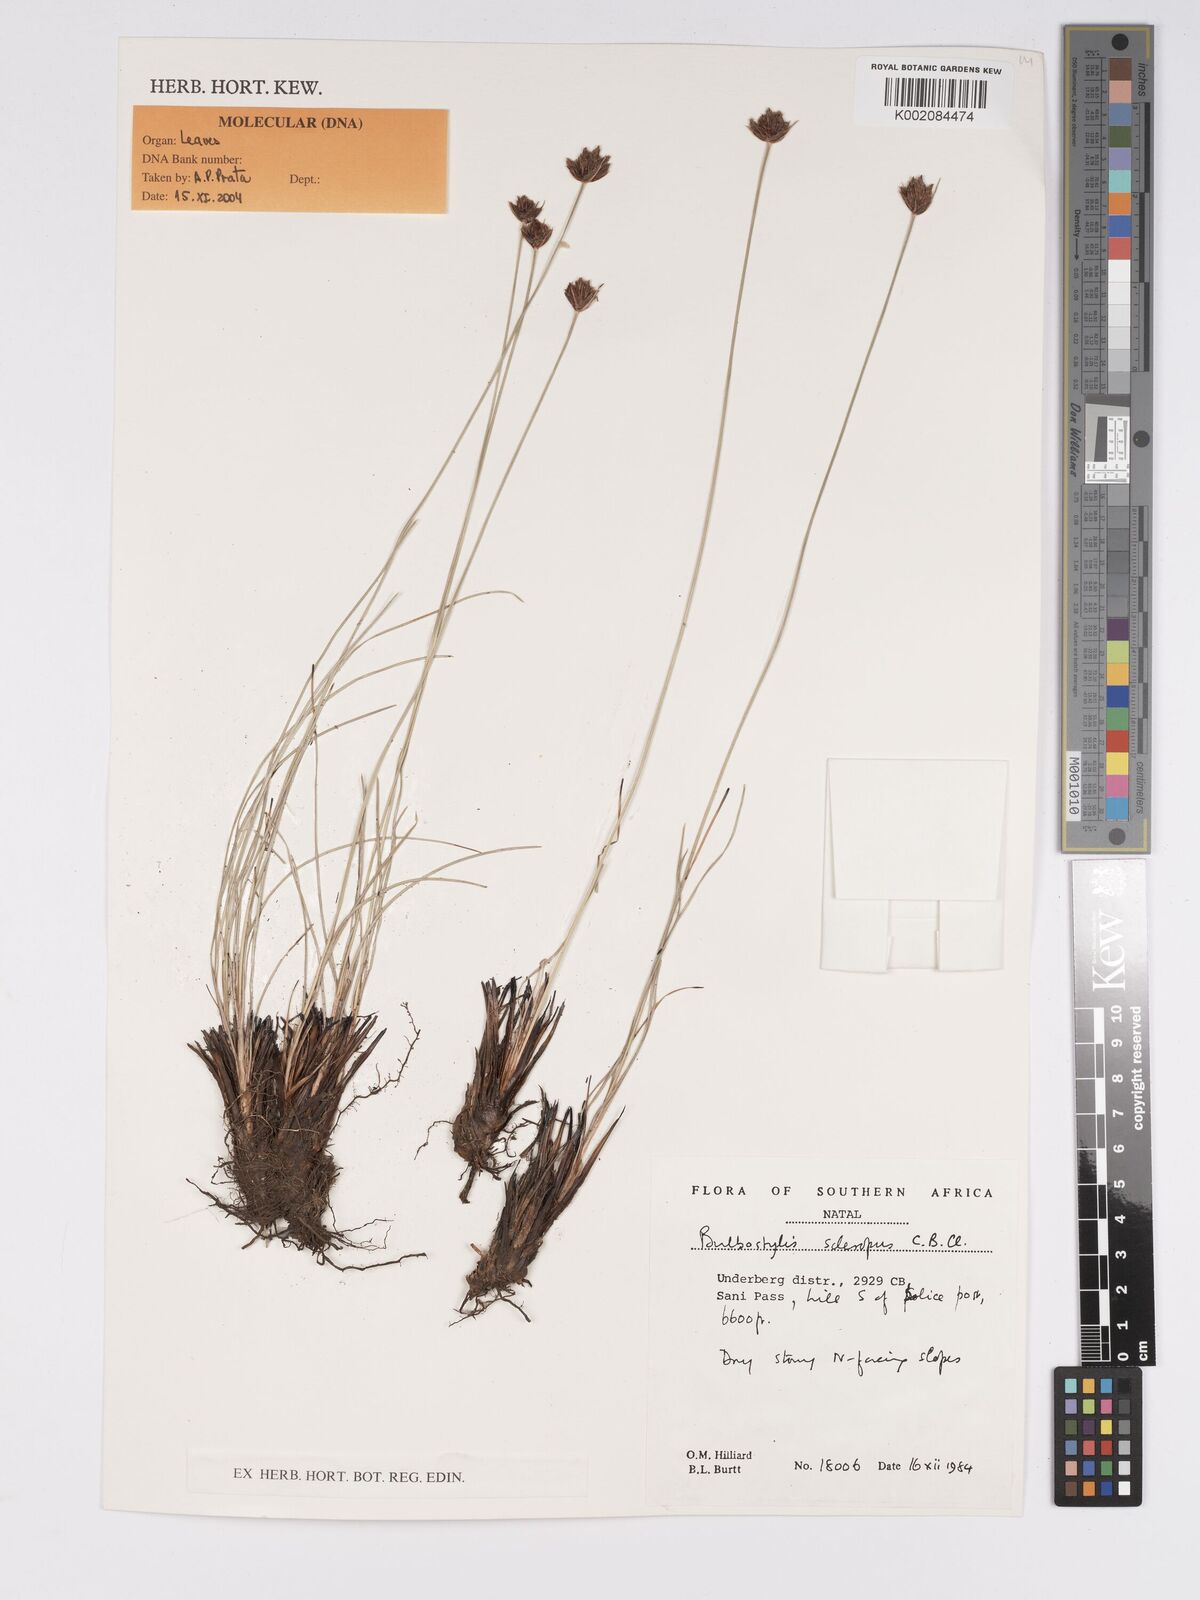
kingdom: Plantae
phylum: Tracheophyta
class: Liliopsida
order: Poales
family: Cyperaceae
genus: Bulbostylis
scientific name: Bulbostylis schoenoides
